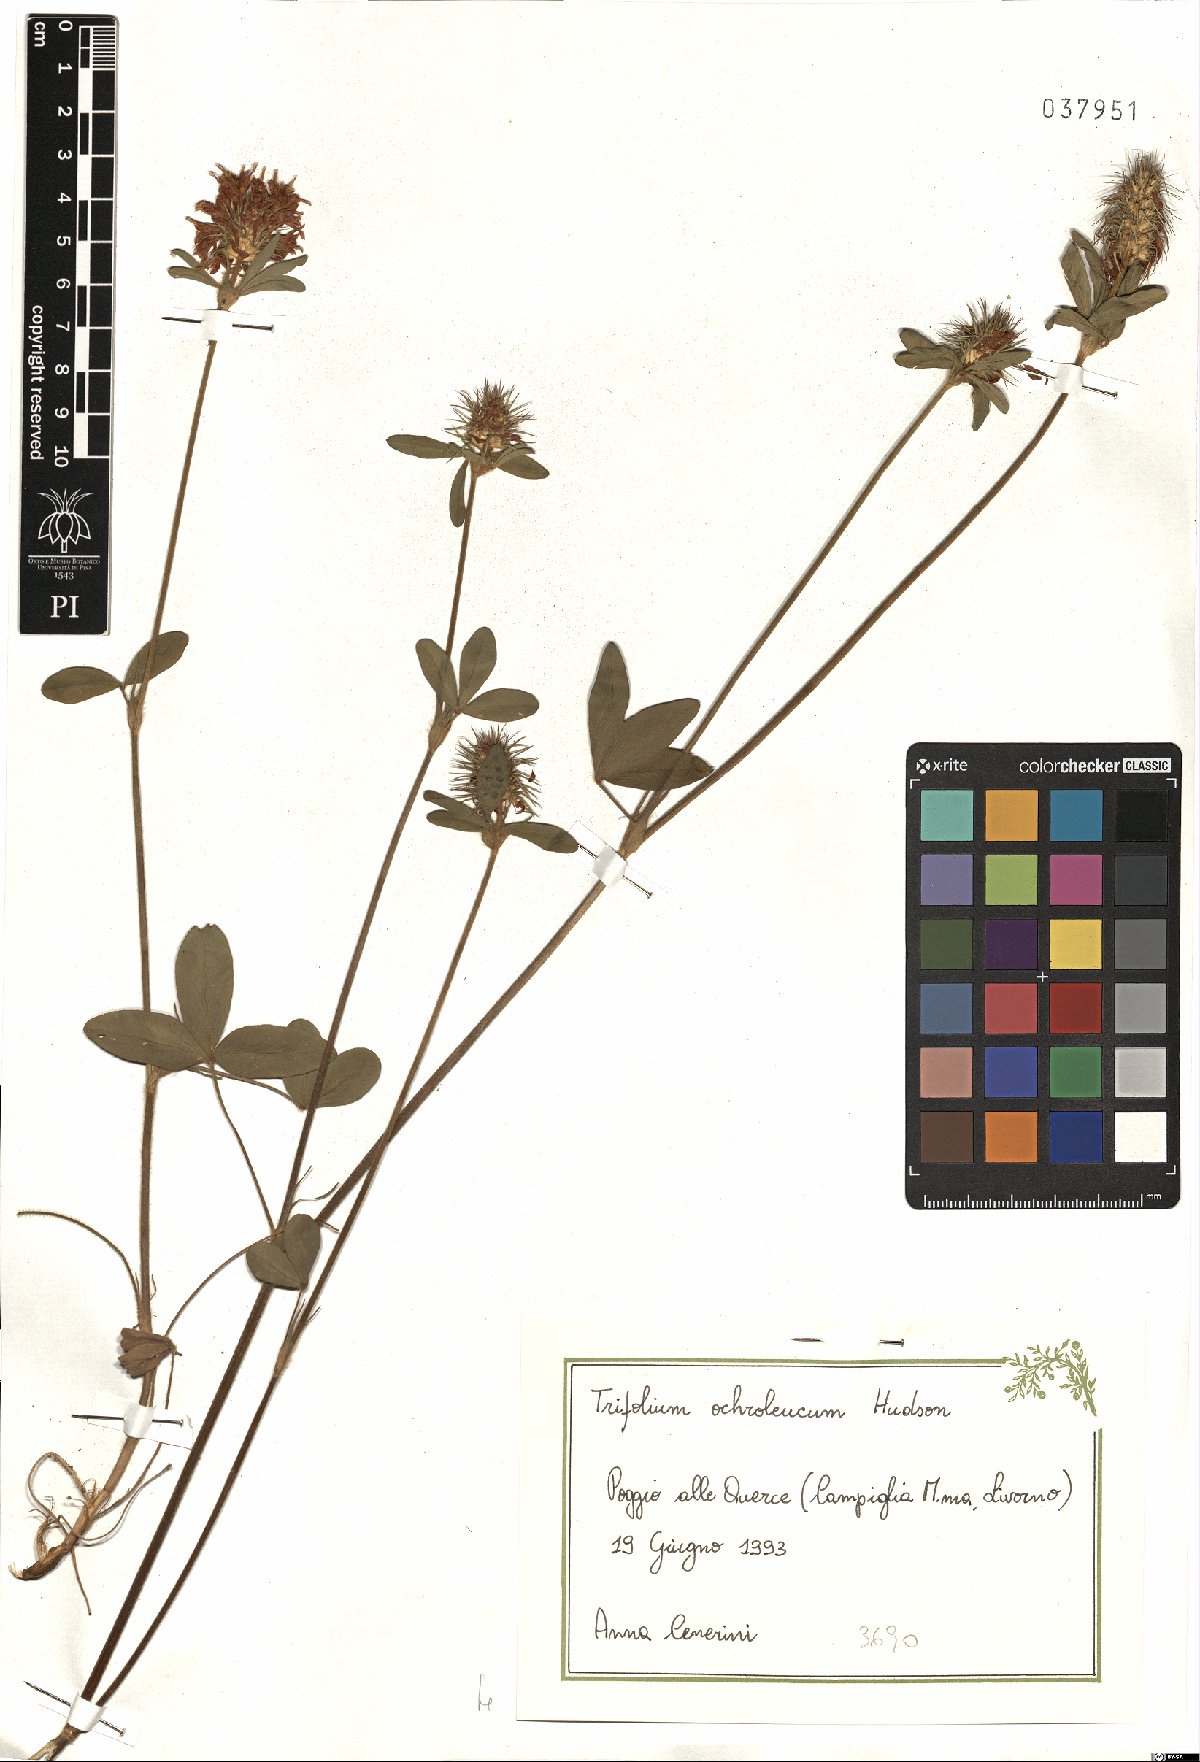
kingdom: Plantae
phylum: Tracheophyta
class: Magnoliopsida
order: Fabales
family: Fabaceae
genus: Trifolium
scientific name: Trifolium ochroleucon
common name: Sulphur clover
